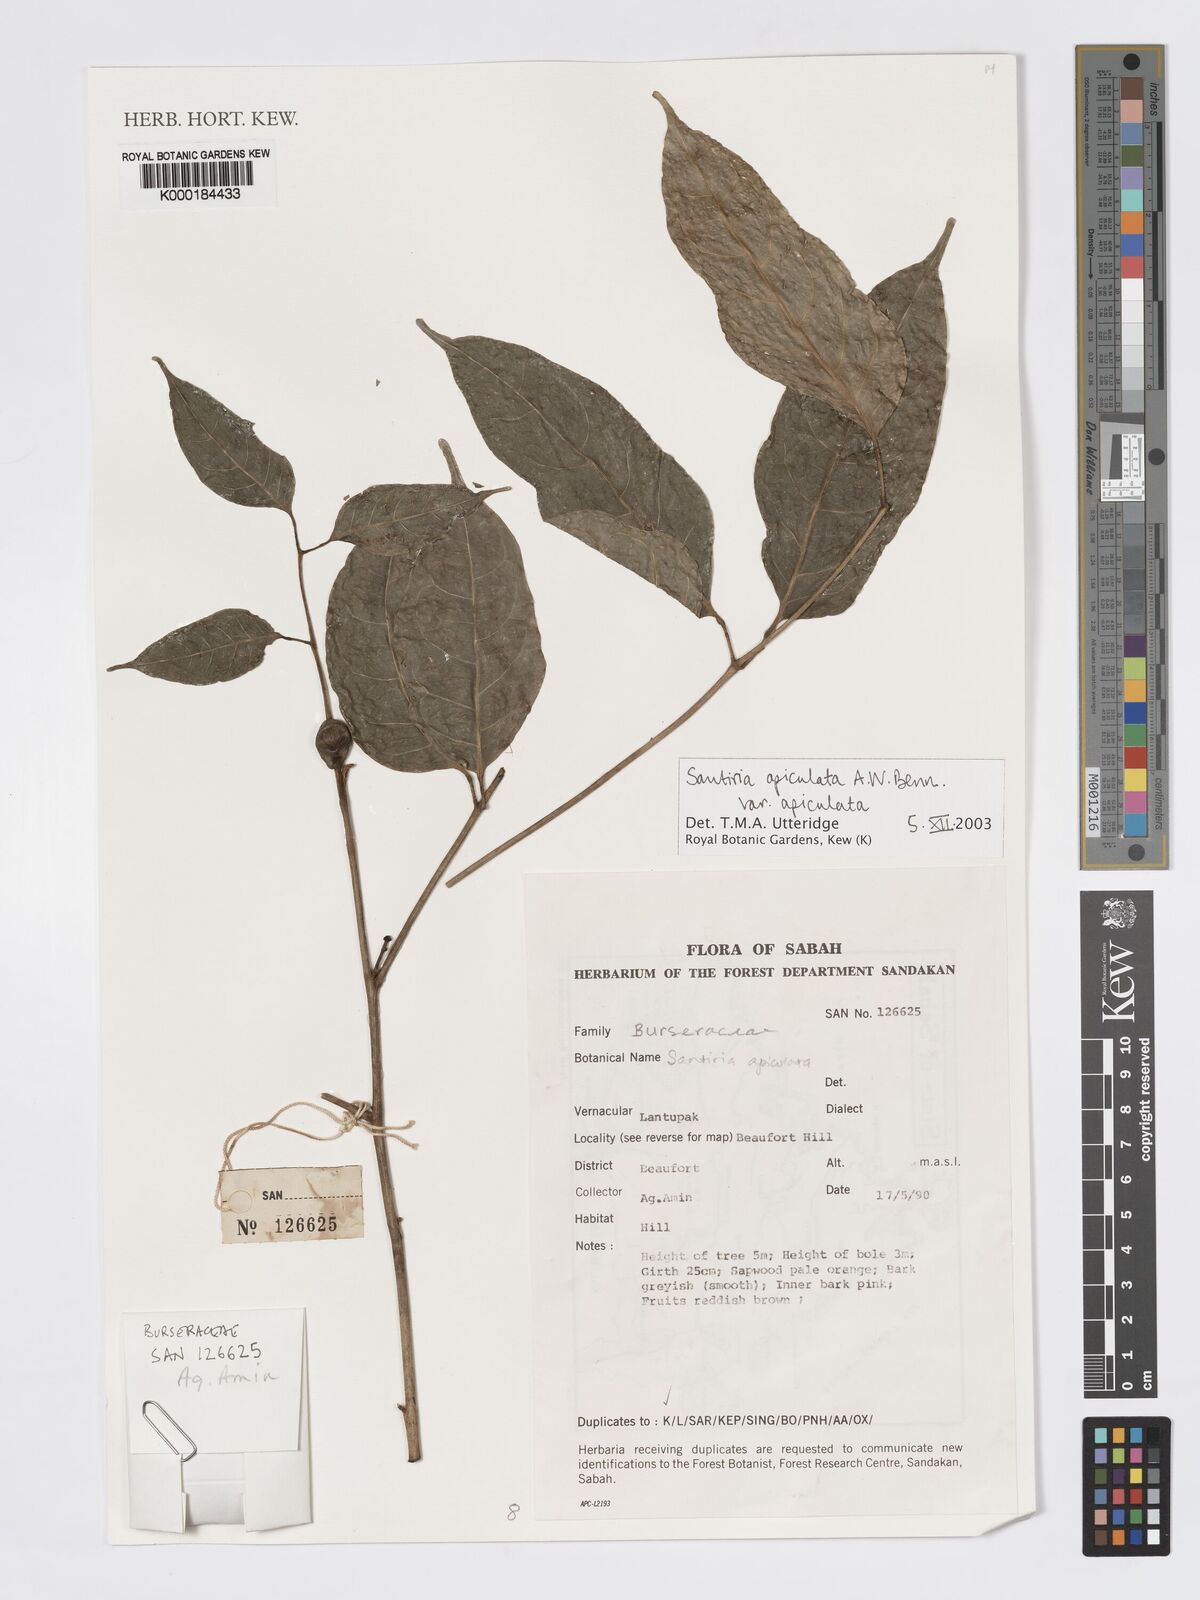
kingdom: Plantae
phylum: Tracheophyta
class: Magnoliopsida
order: Sapindales
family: Burseraceae
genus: Santiria
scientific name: Santiria apiculata
